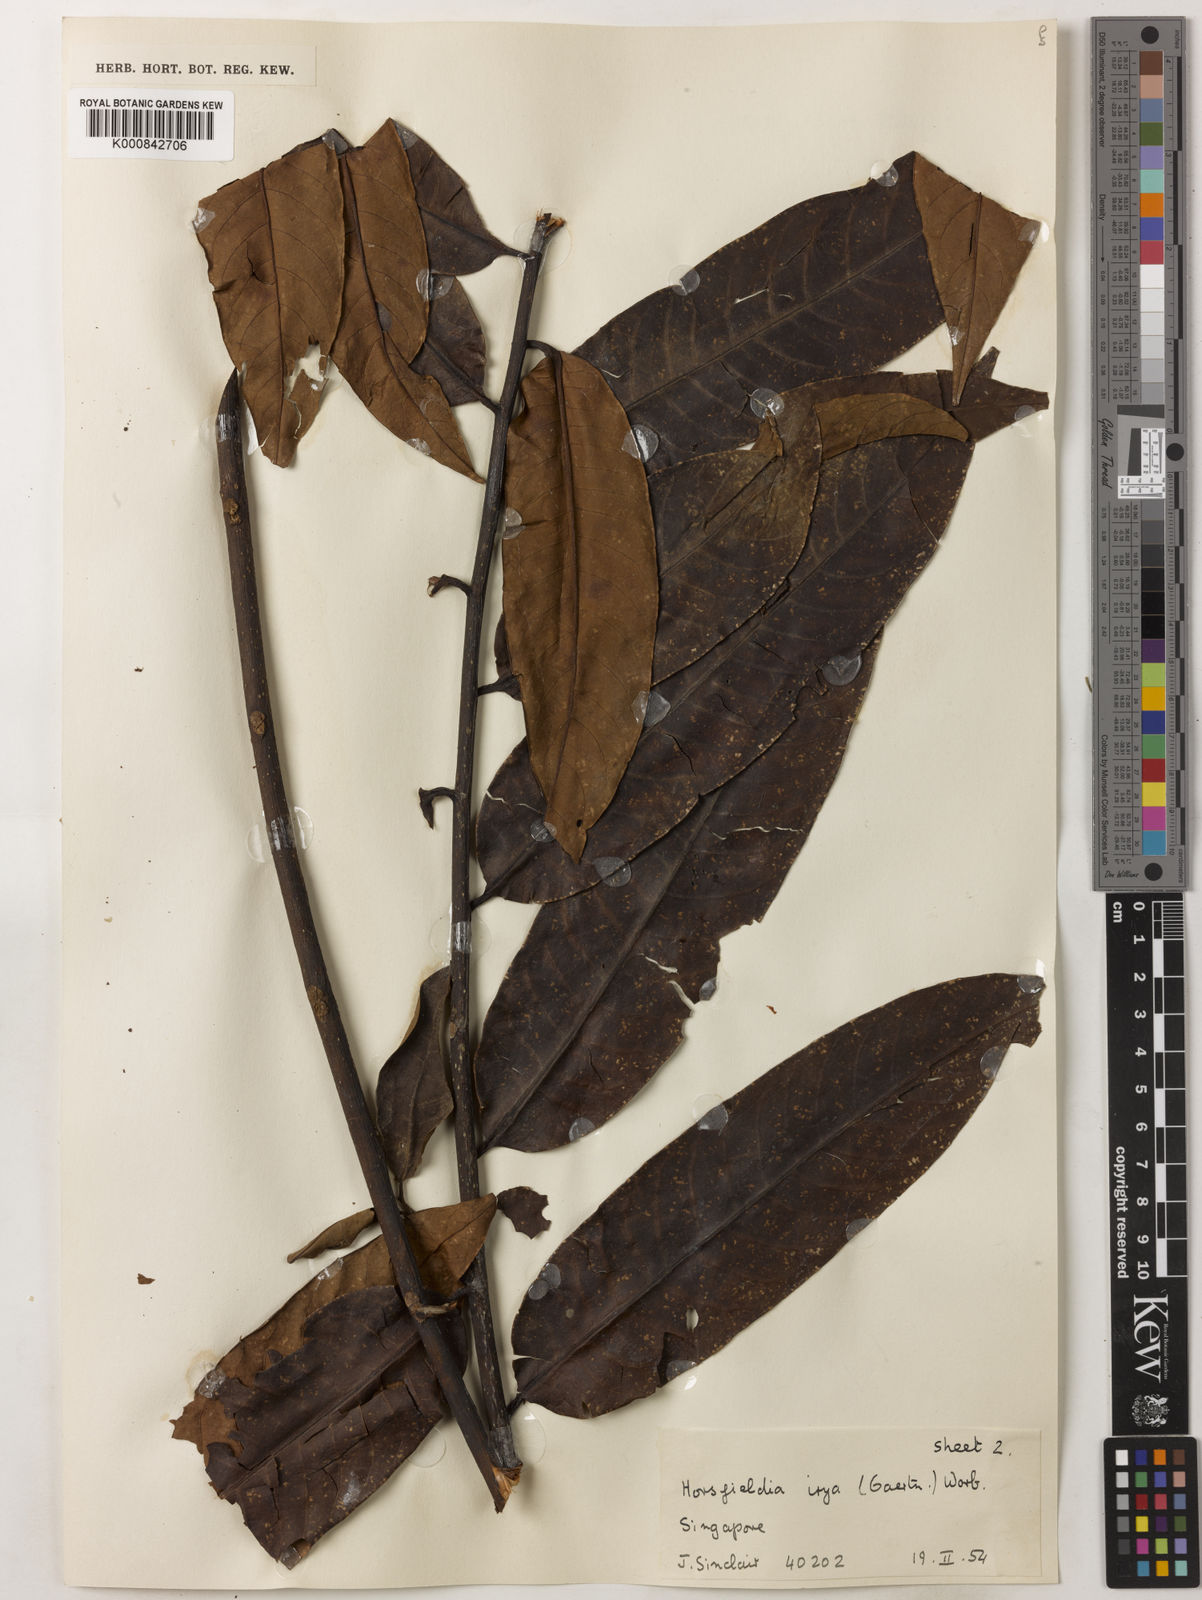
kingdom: Plantae
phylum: Tracheophyta
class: Magnoliopsida
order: Magnoliales
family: Myristicaceae
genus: Horsfieldia
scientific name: Horsfieldia irya
